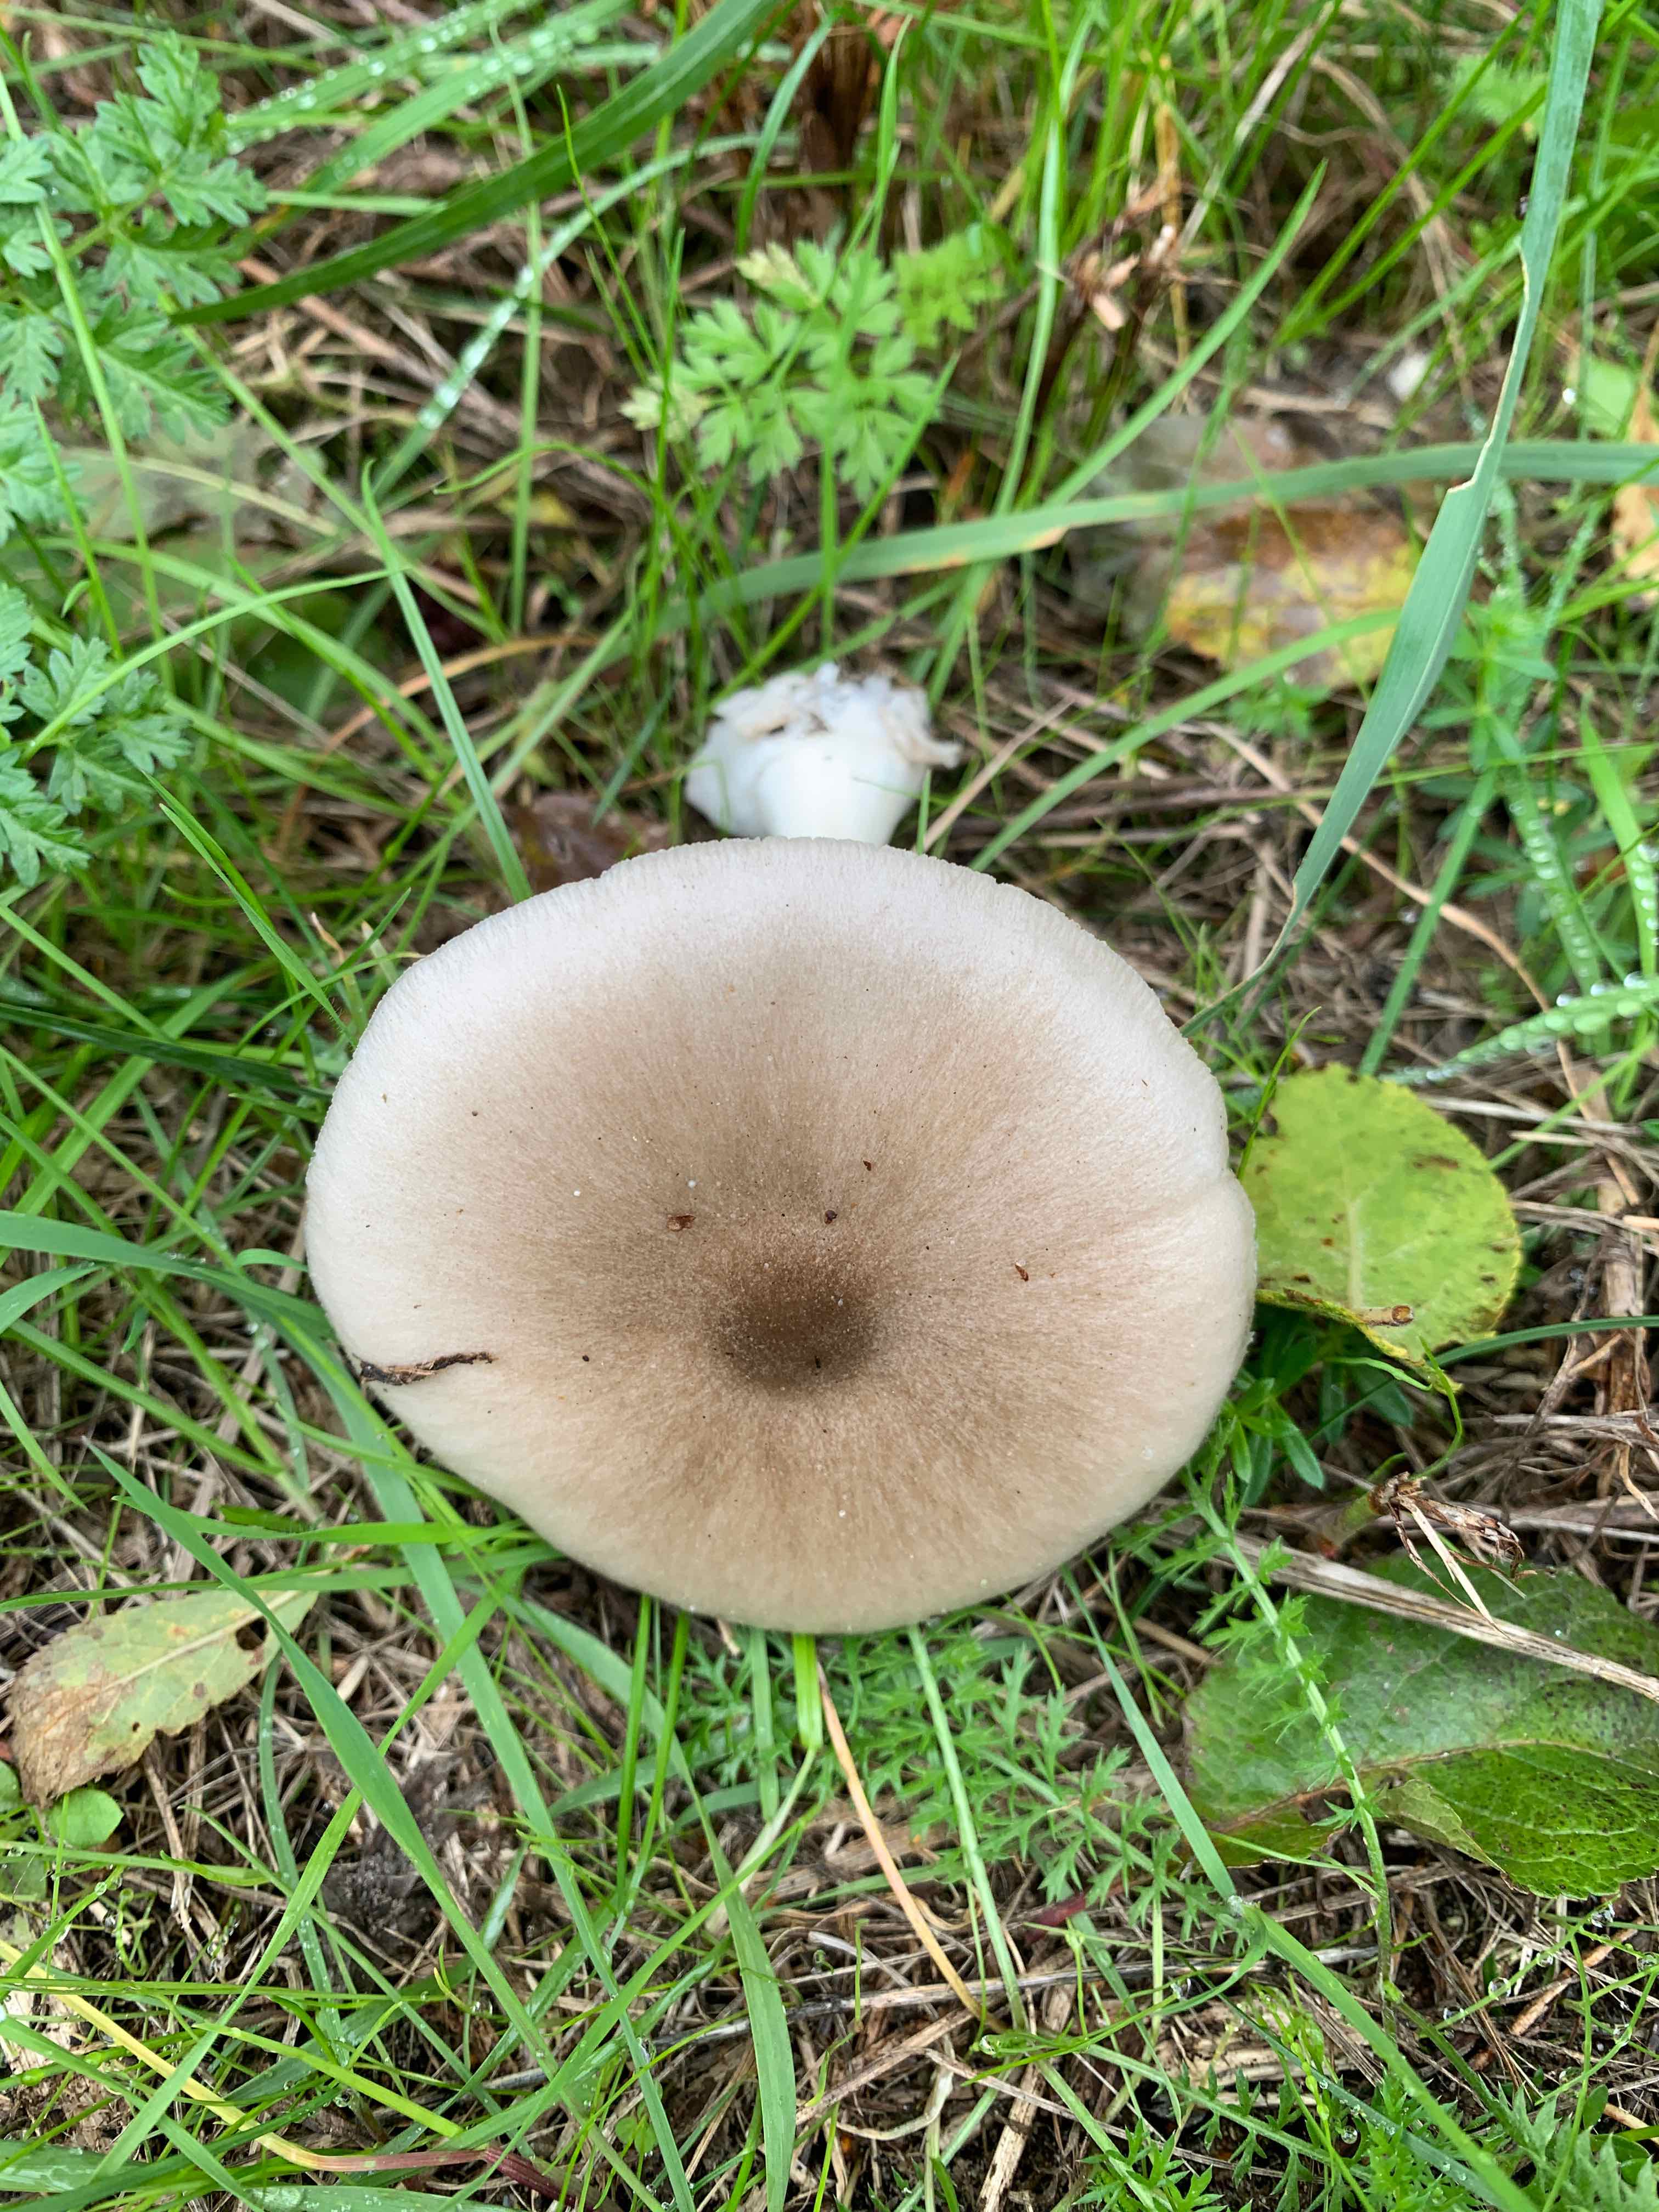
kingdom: Fungi
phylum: Basidiomycota
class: Agaricomycetes
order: Agaricales
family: Pluteaceae
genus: Volvopluteus
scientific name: Volvopluteus gloiocephalus
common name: høj posesvamp
